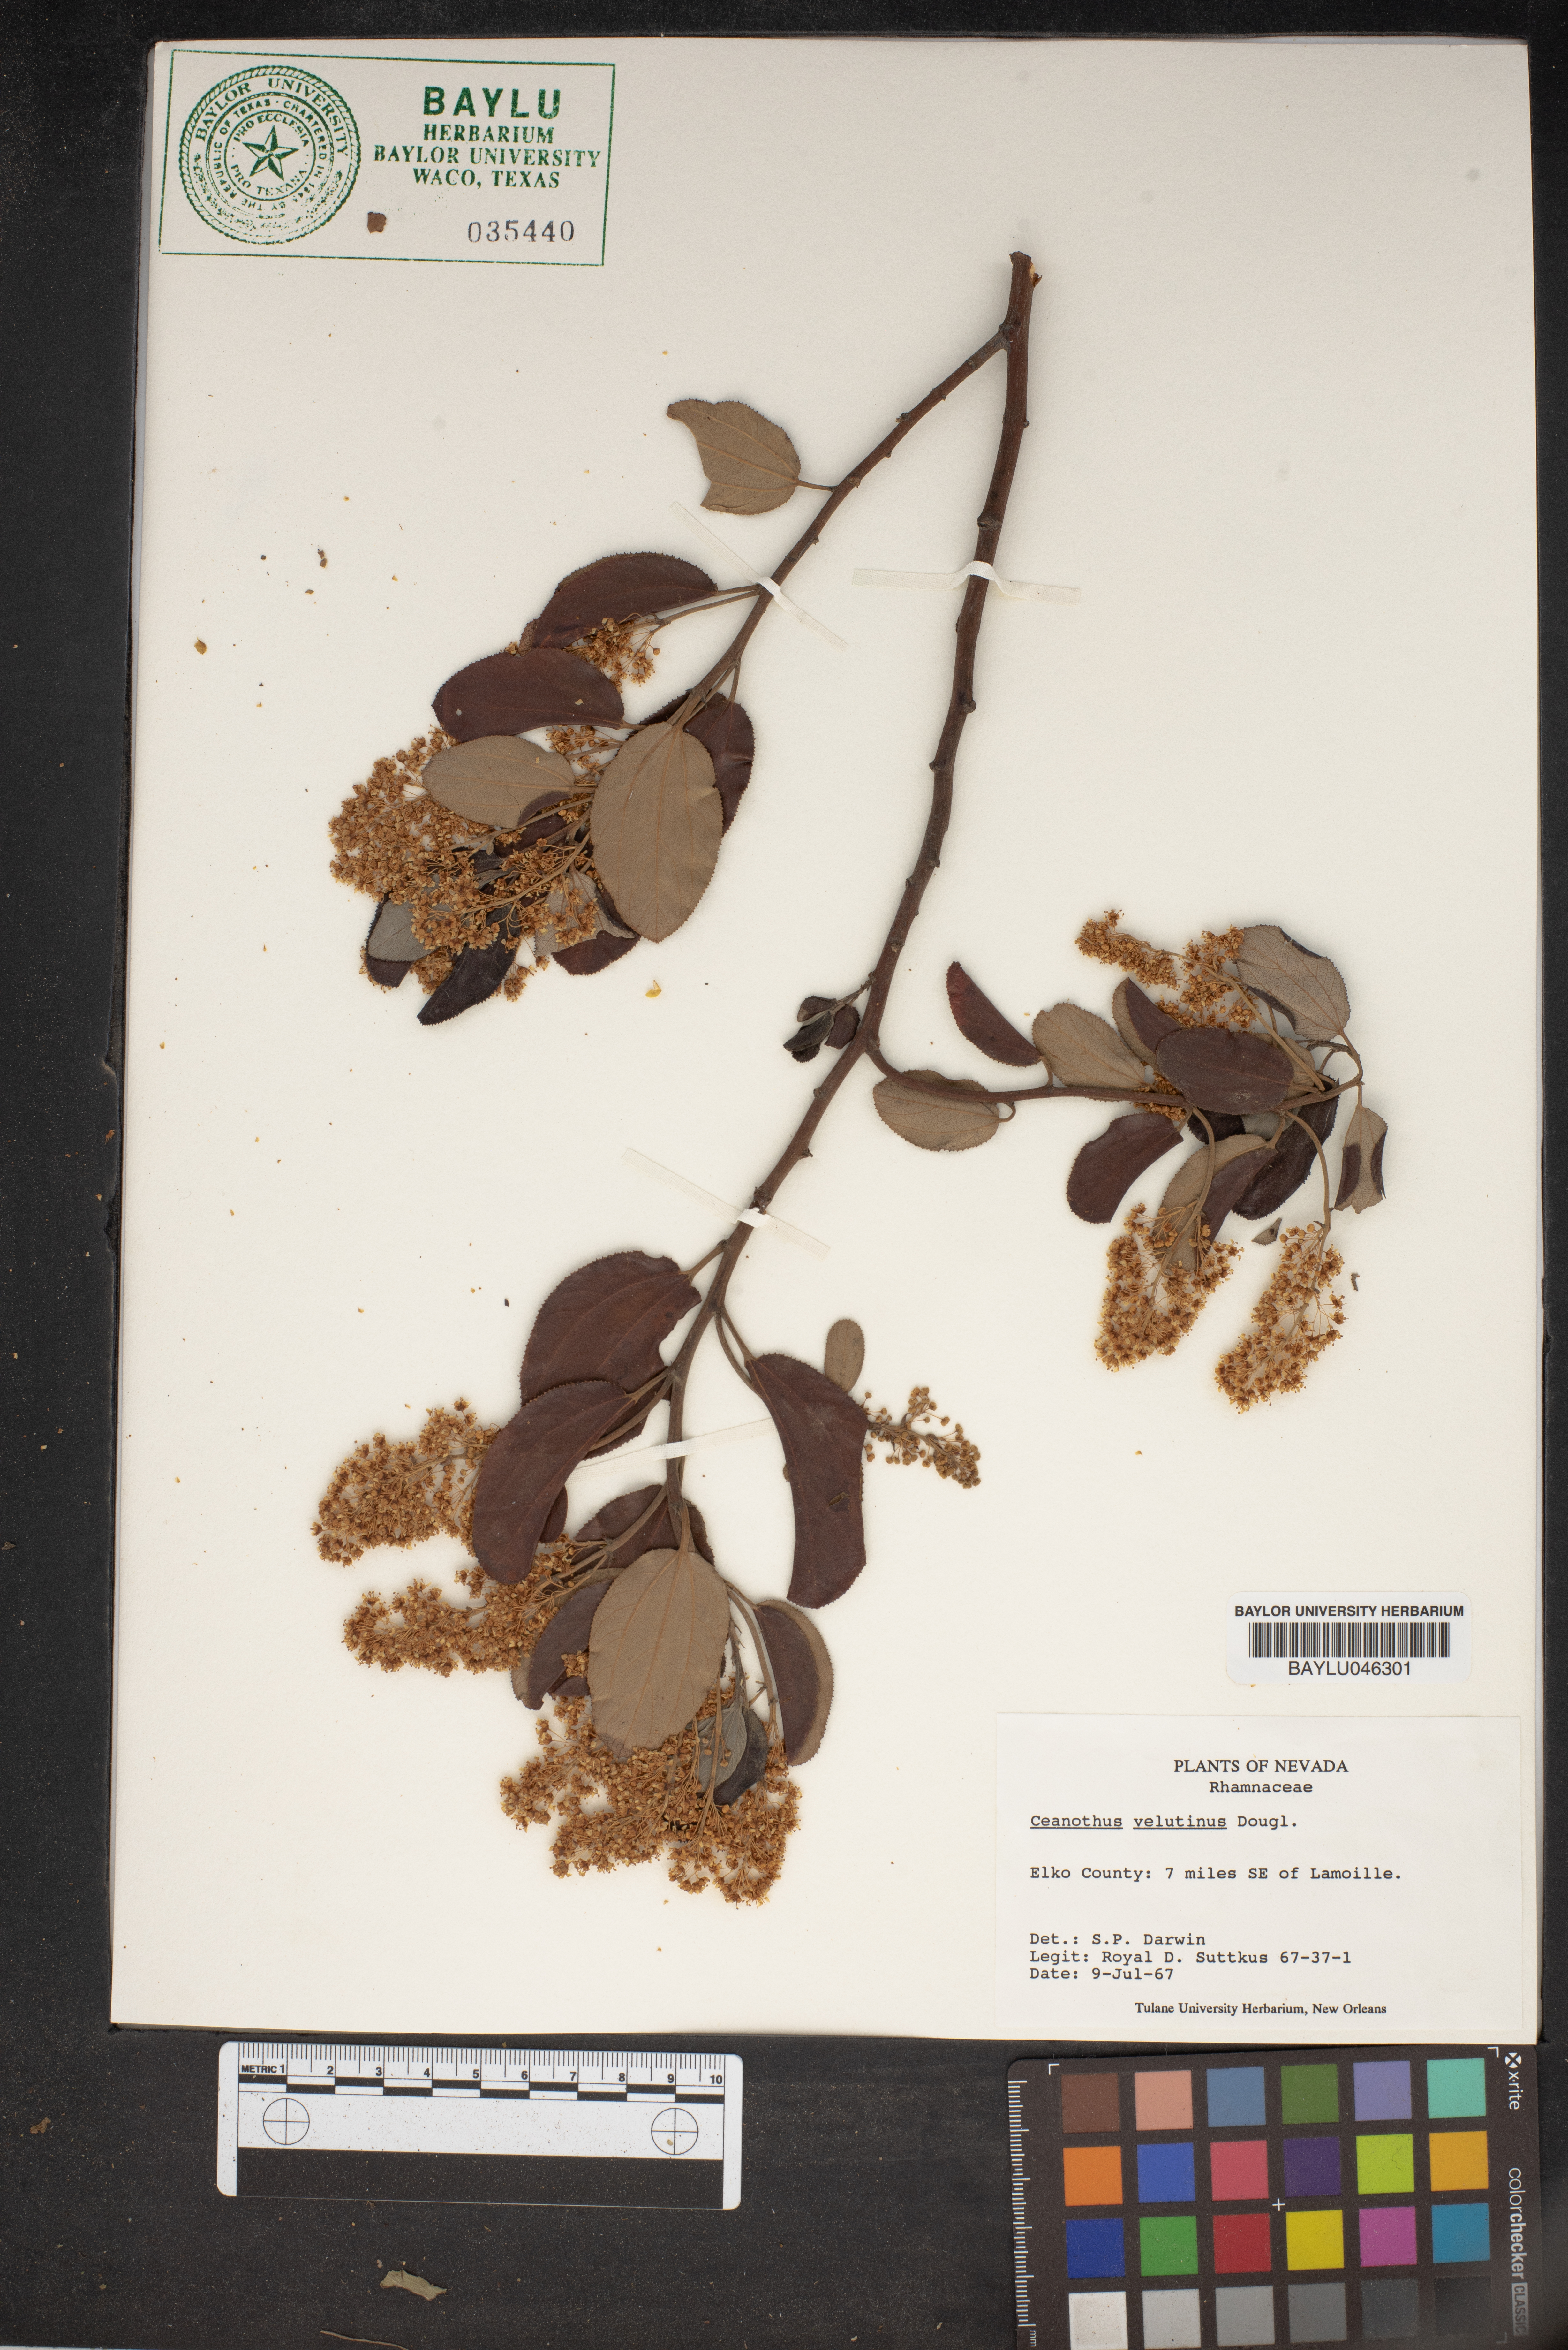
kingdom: Plantae
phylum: Tracheophyta
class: Magnoliopsida
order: Rosales
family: Rhamnaceae
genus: Ceanothus
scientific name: Ceanothus velutinus
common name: Snowbrush
